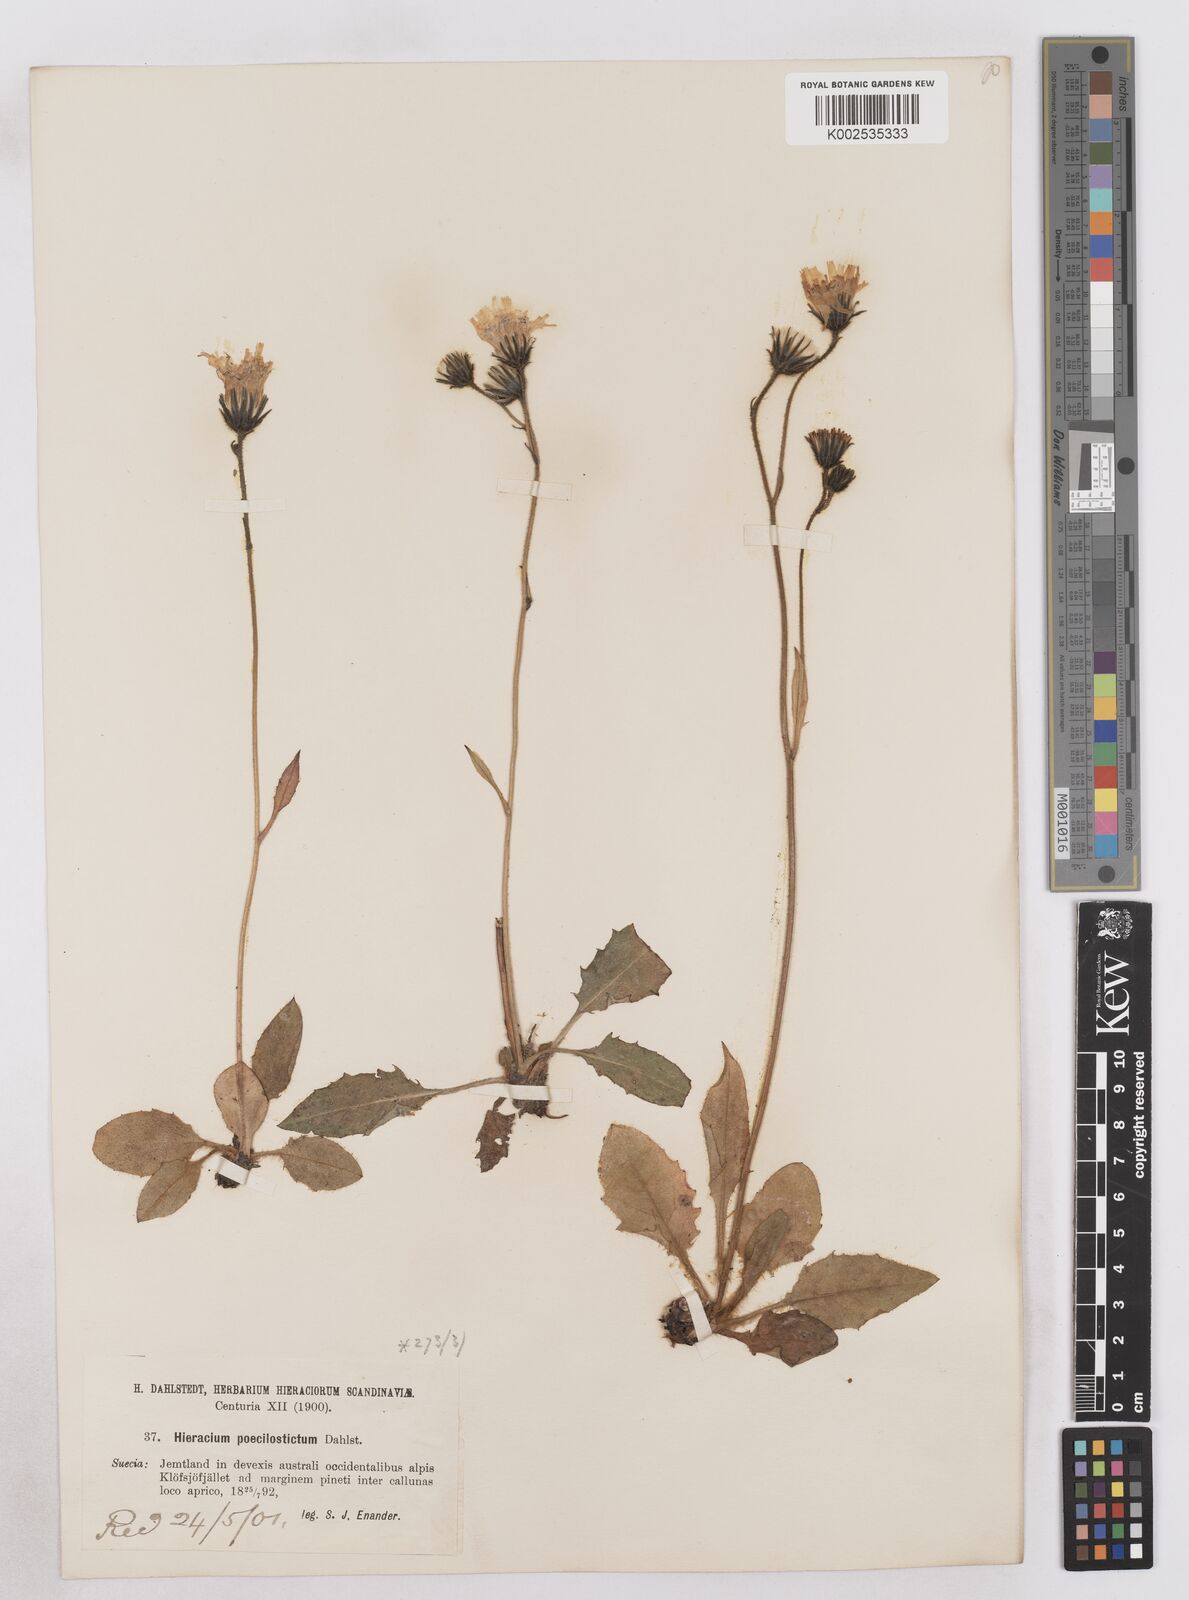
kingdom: Plantae
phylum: Tracheophyta
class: Magnoliopsida
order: Asterales
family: Asteraceae
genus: Hieracium
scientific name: Hieracium conspurcans
